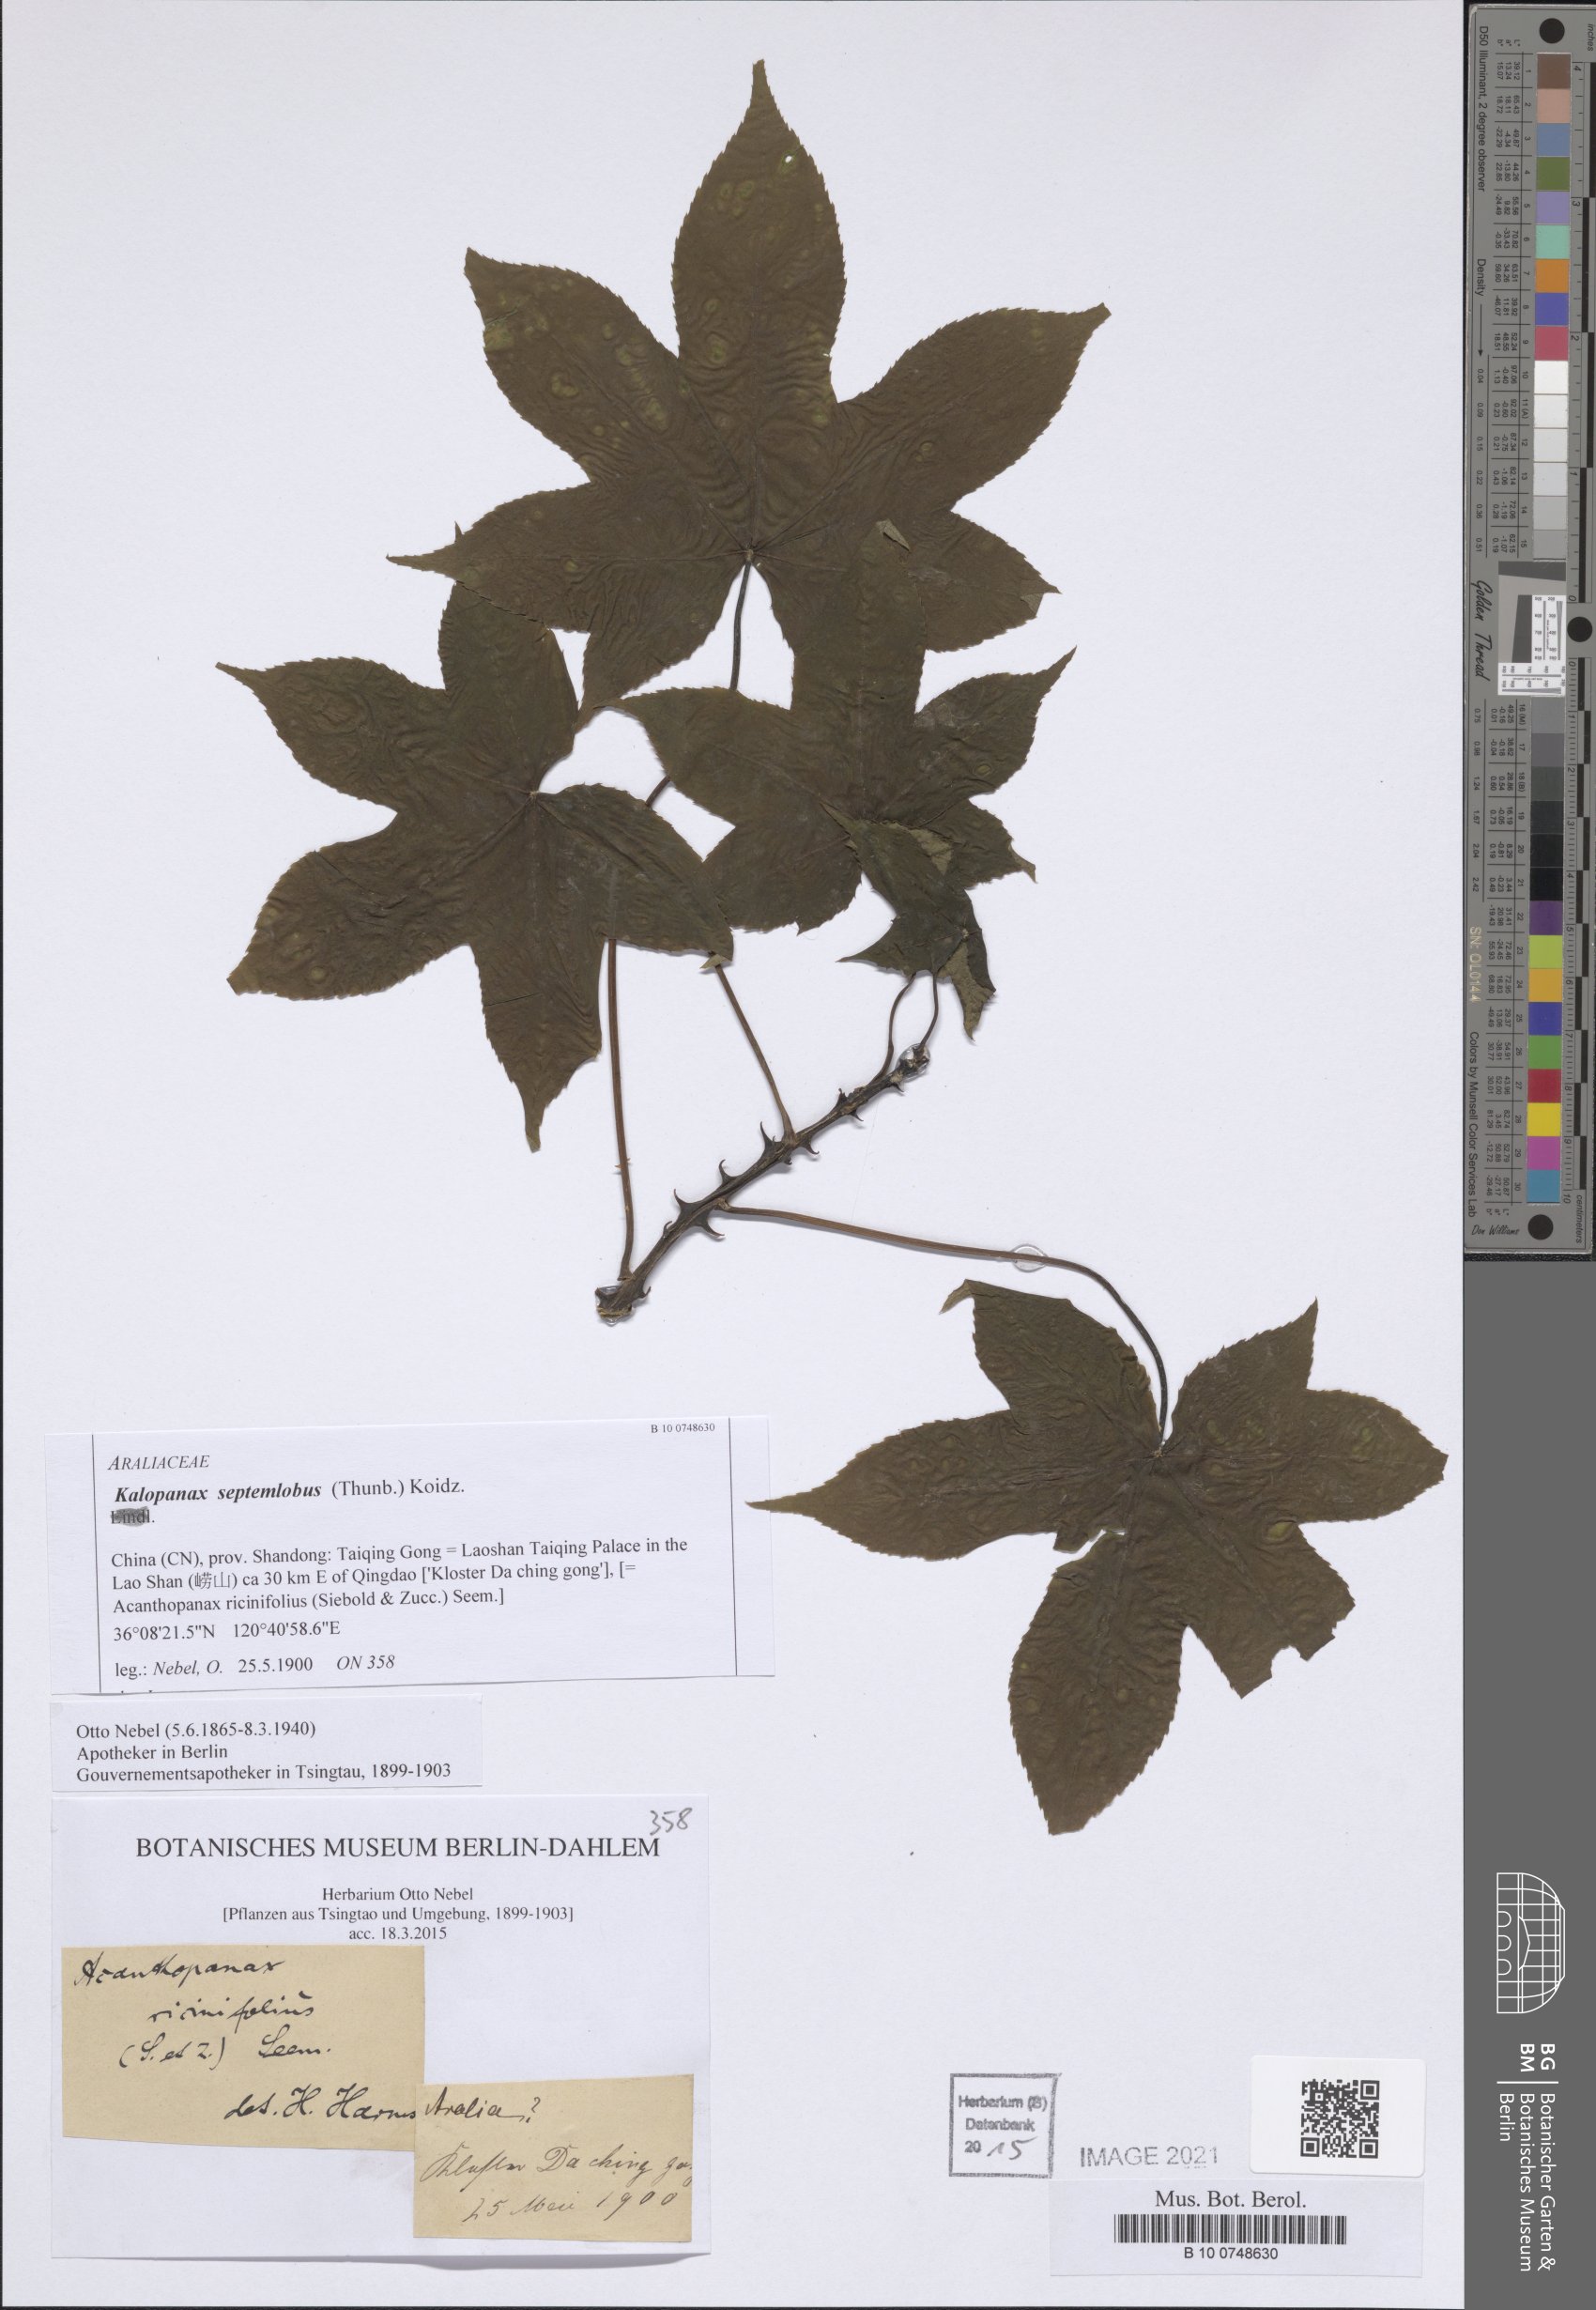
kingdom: Plantae
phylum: Tracheophyta
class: Magnoliopsida
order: Apiales
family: Araliaceae
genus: Kalopanax
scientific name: Kalopanax septemlobus
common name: Castor aralia
